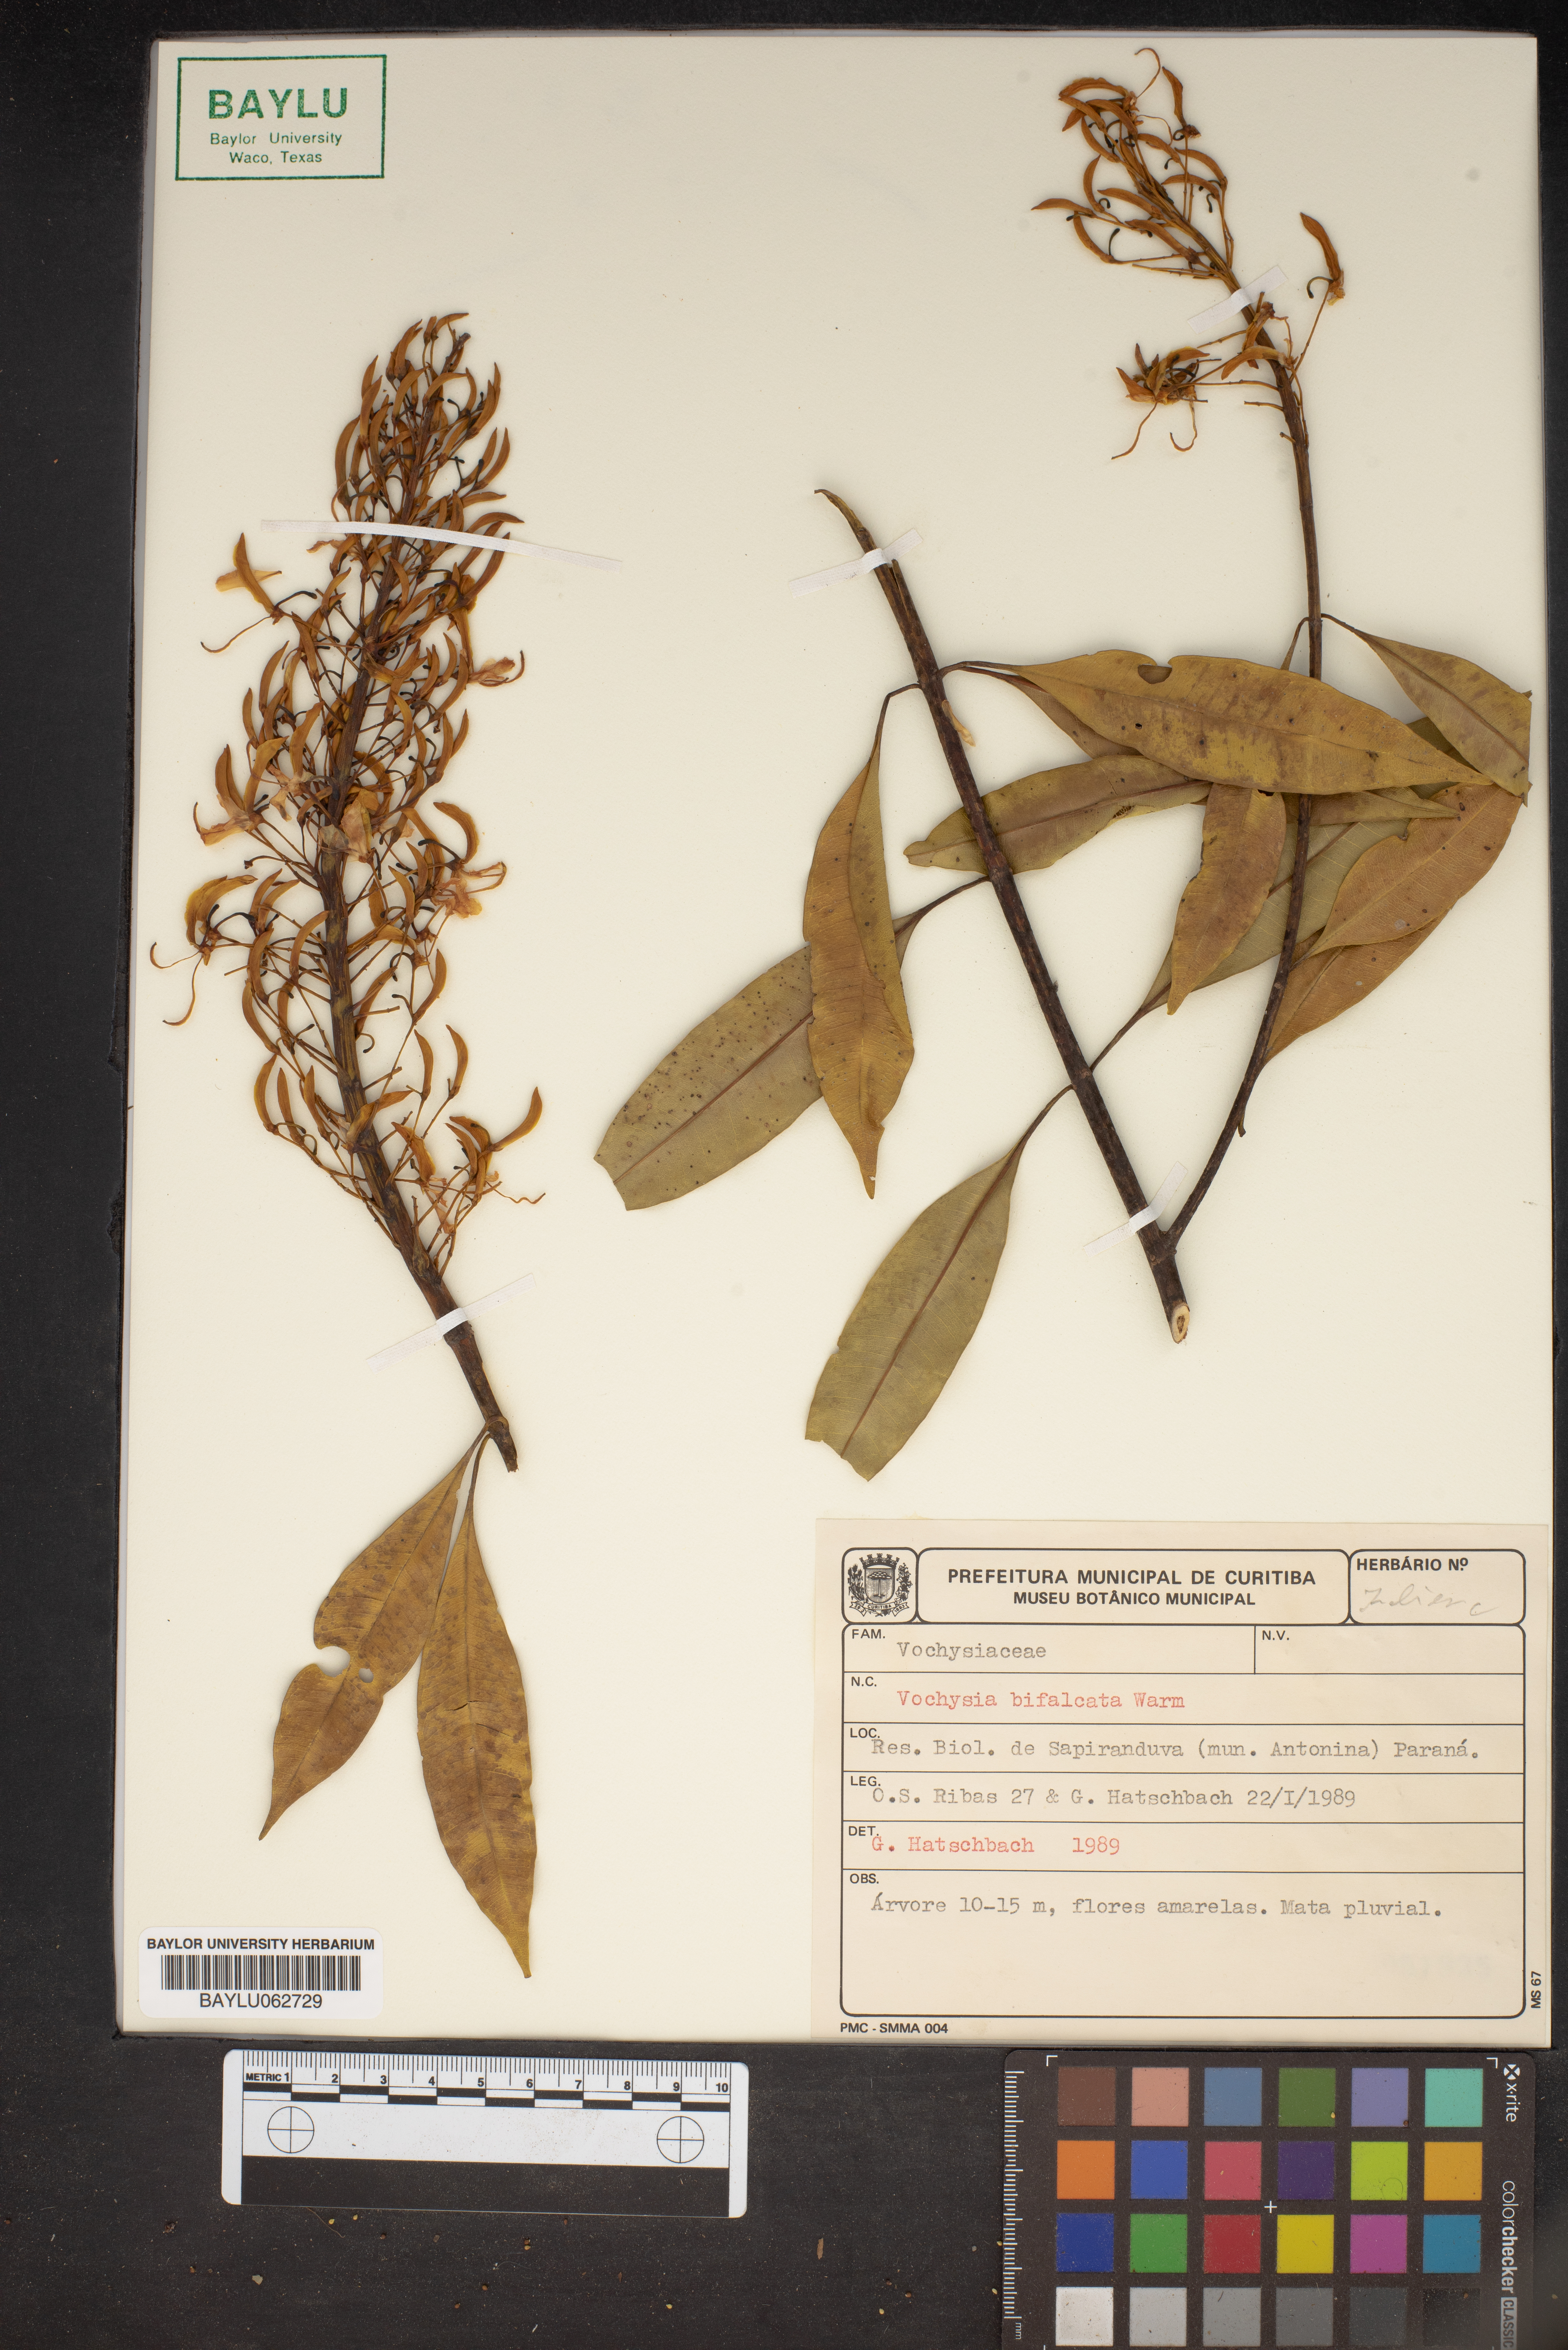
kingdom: Plantae
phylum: Tracheophyta
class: Magnoliopsida
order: Myrtales
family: Vochysiaceae
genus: Vochysia
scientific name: Vochysia bifalcata
